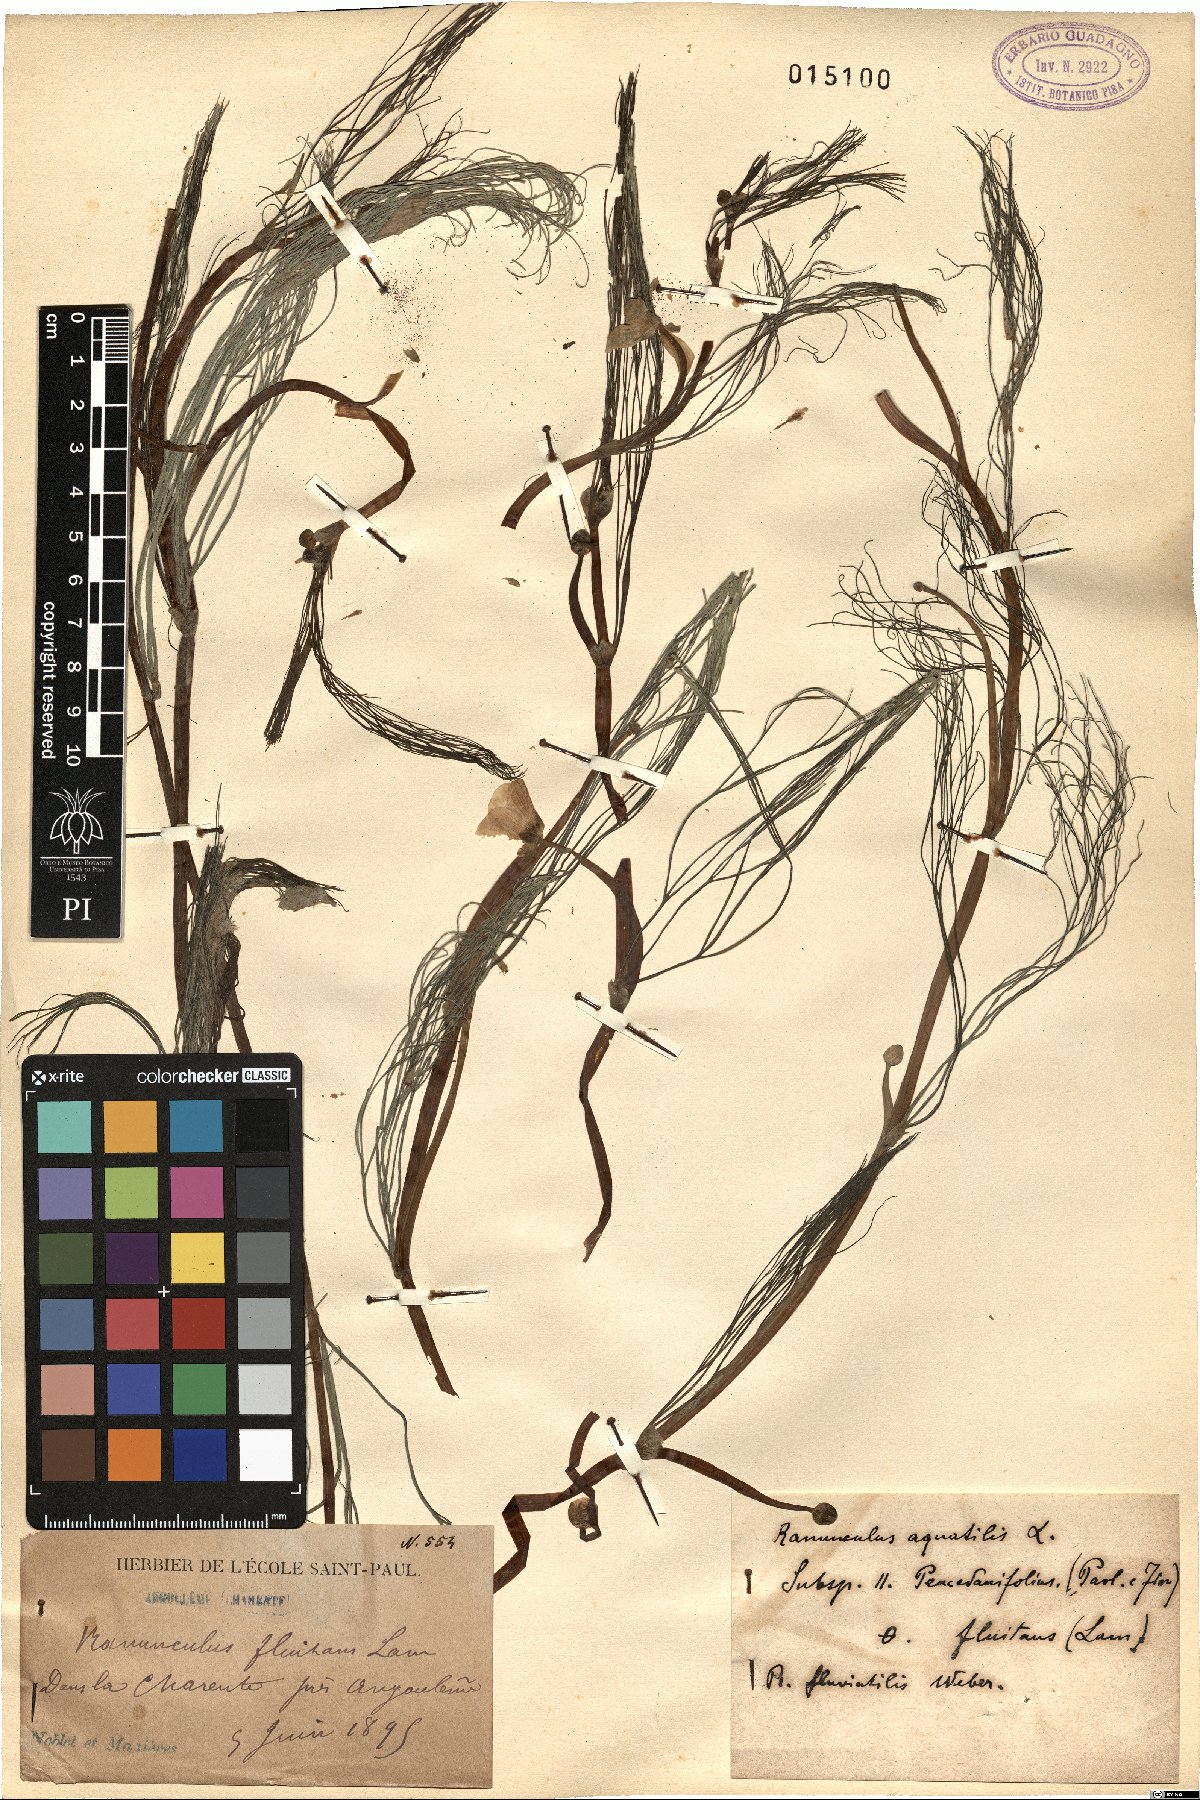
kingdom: Plantae
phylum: Tracheophyta
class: Magnoliopsida
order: Ranunculales
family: Ranunculaceae
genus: Ranunculus
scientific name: Ranunculus aquatilis
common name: Common water-crowfoot
